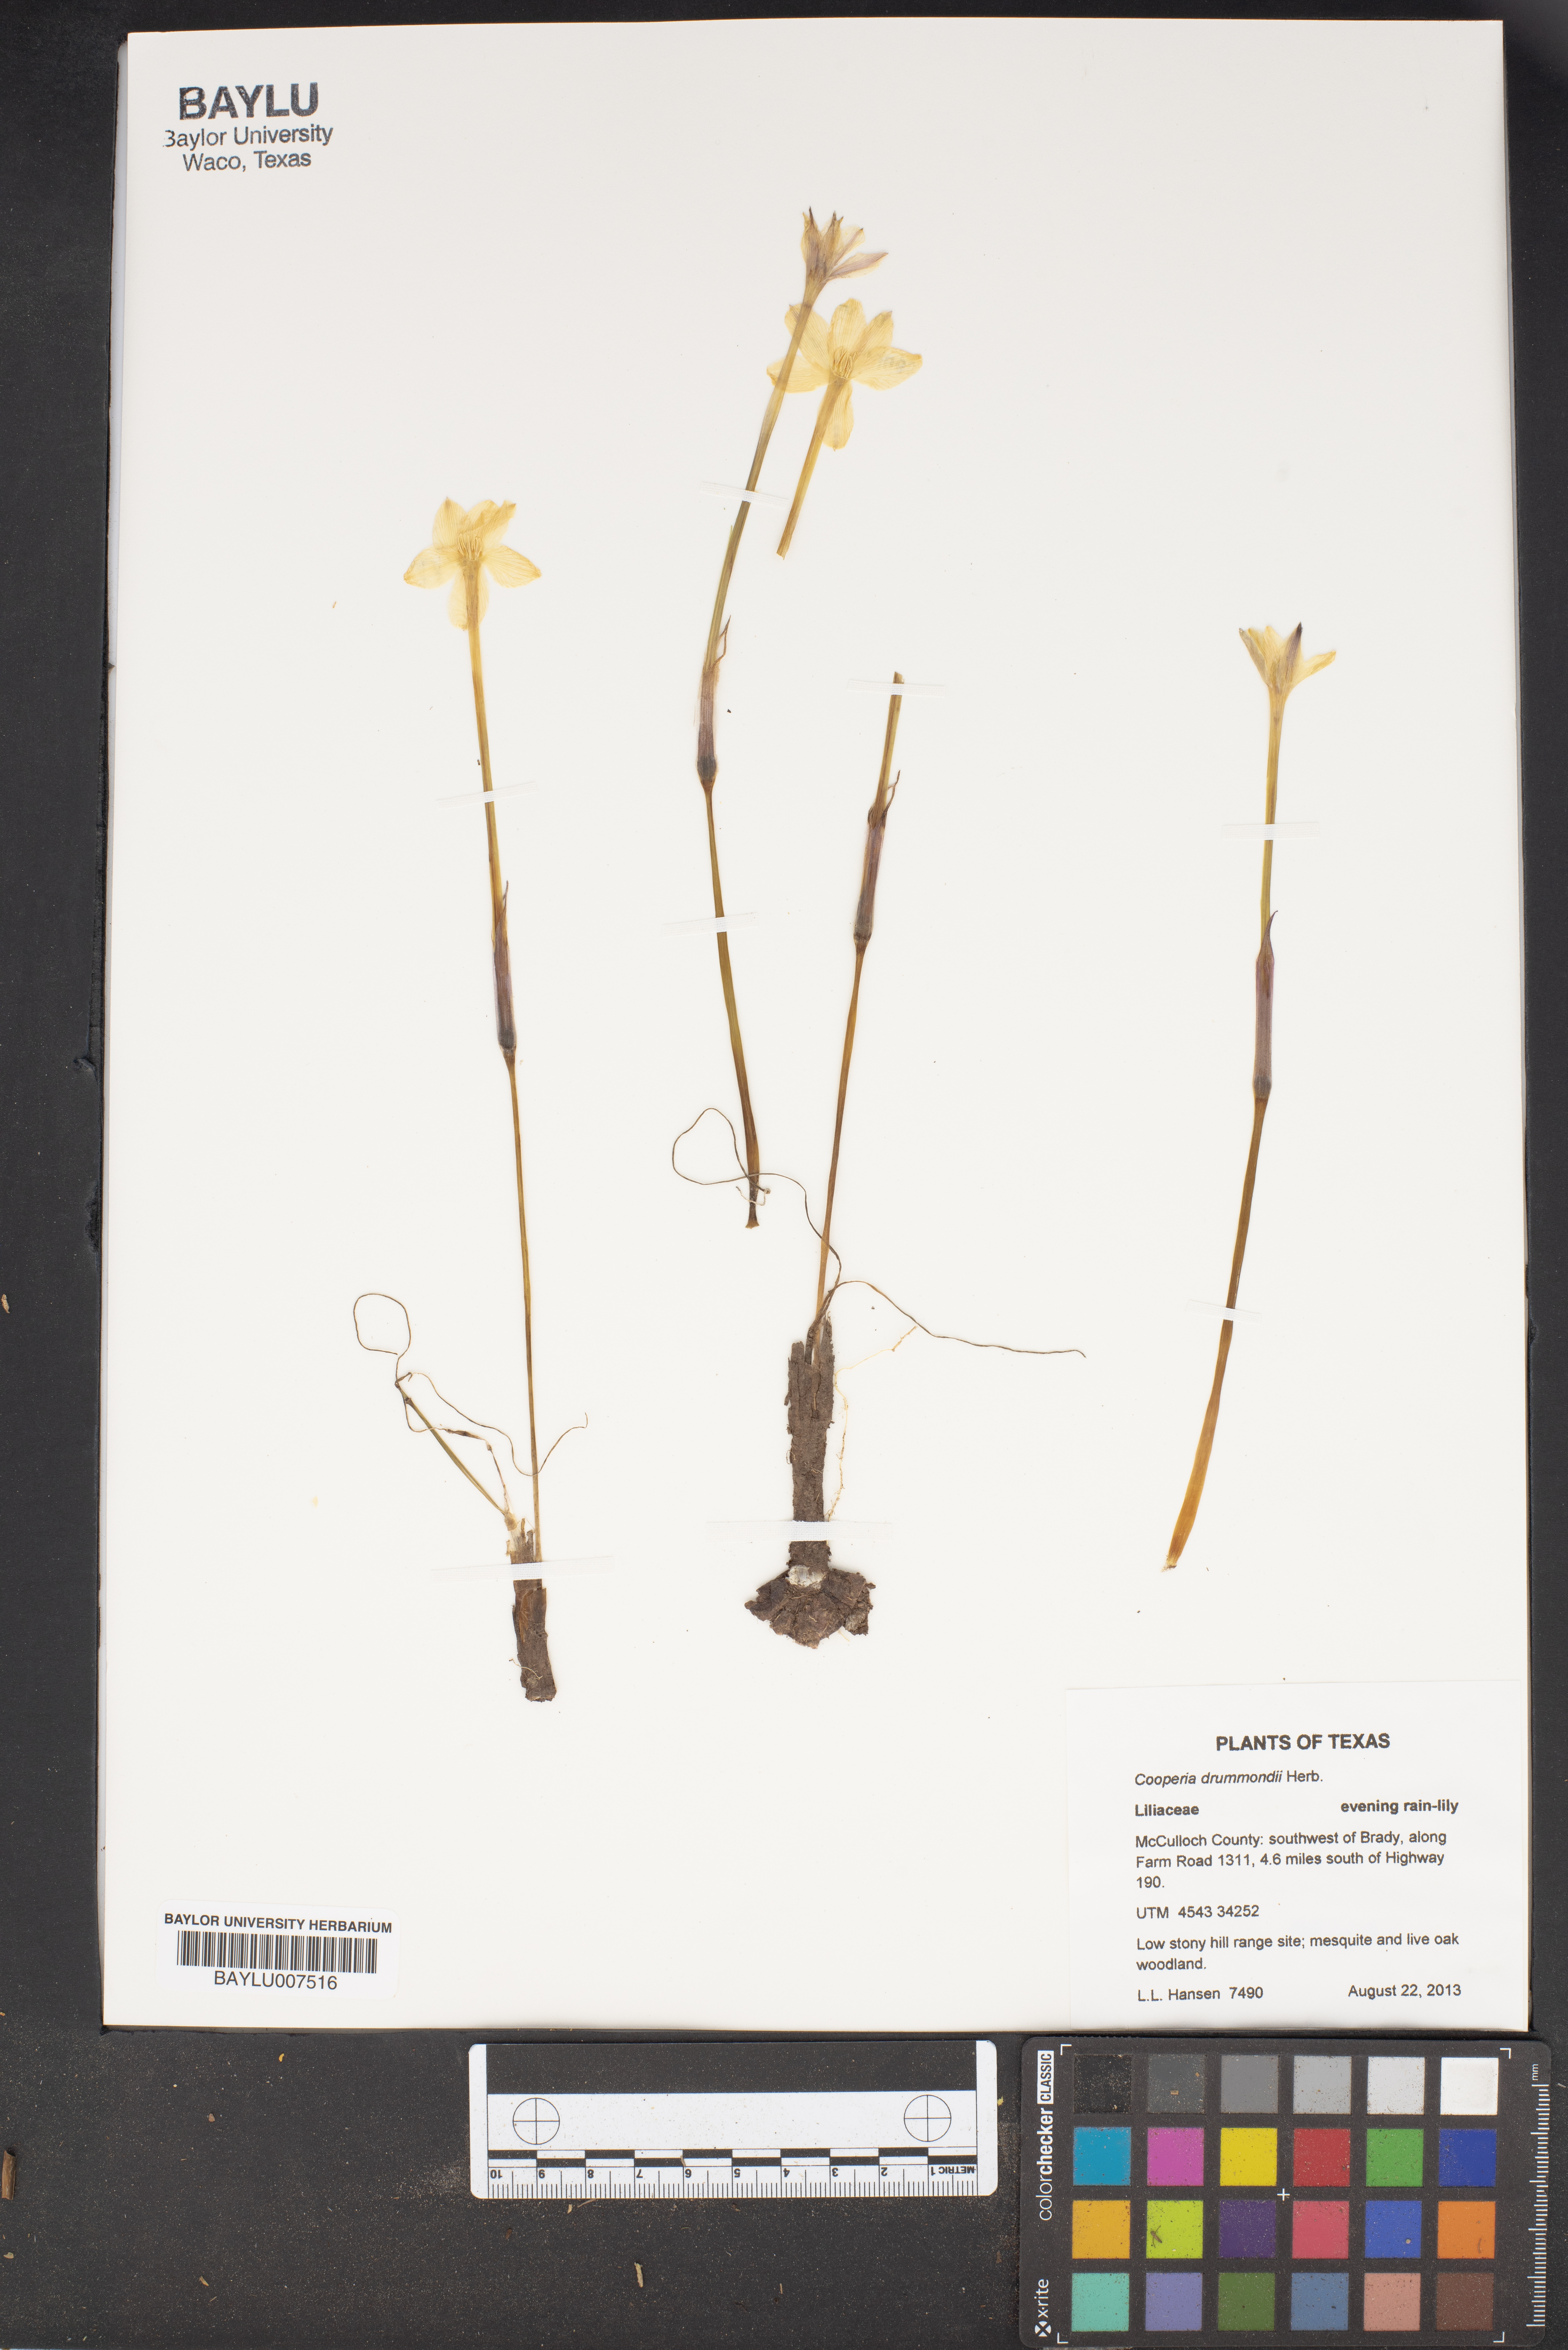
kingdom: Plantae
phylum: Tracheophyta
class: Liliopsida
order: Asparagales
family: Amaryllidaceae
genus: Zephyranthes
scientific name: Zephyranthes chlorosolen
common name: Evening rain-lily
